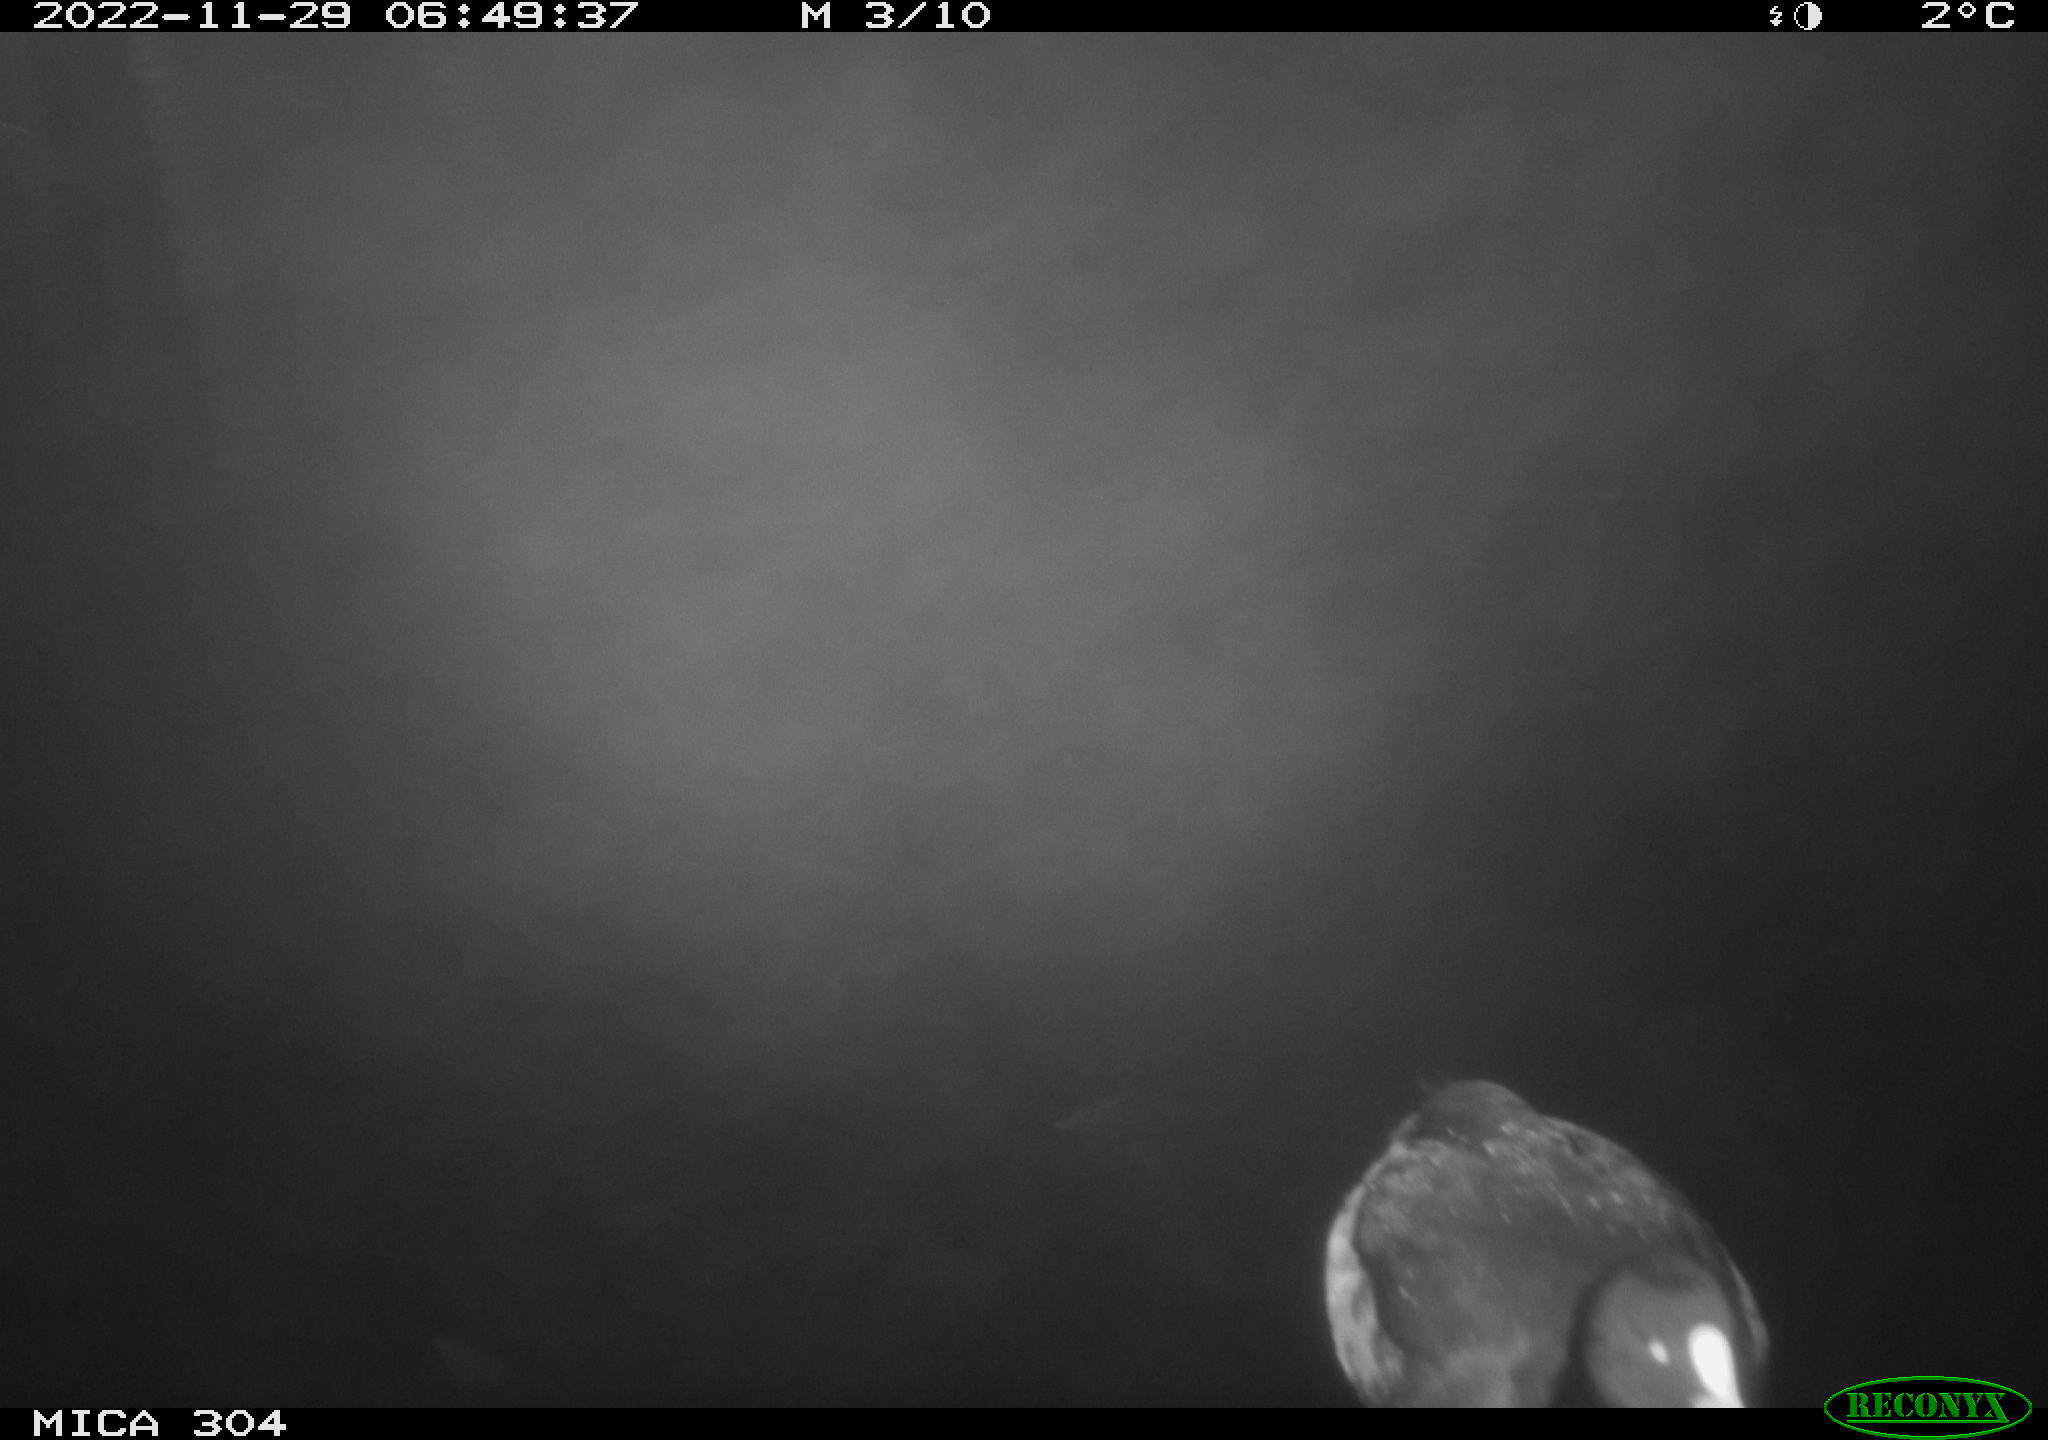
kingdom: Animalia
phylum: Chordata
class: Aves
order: Anseriformes
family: Anatidae
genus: Anas
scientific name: Anas
